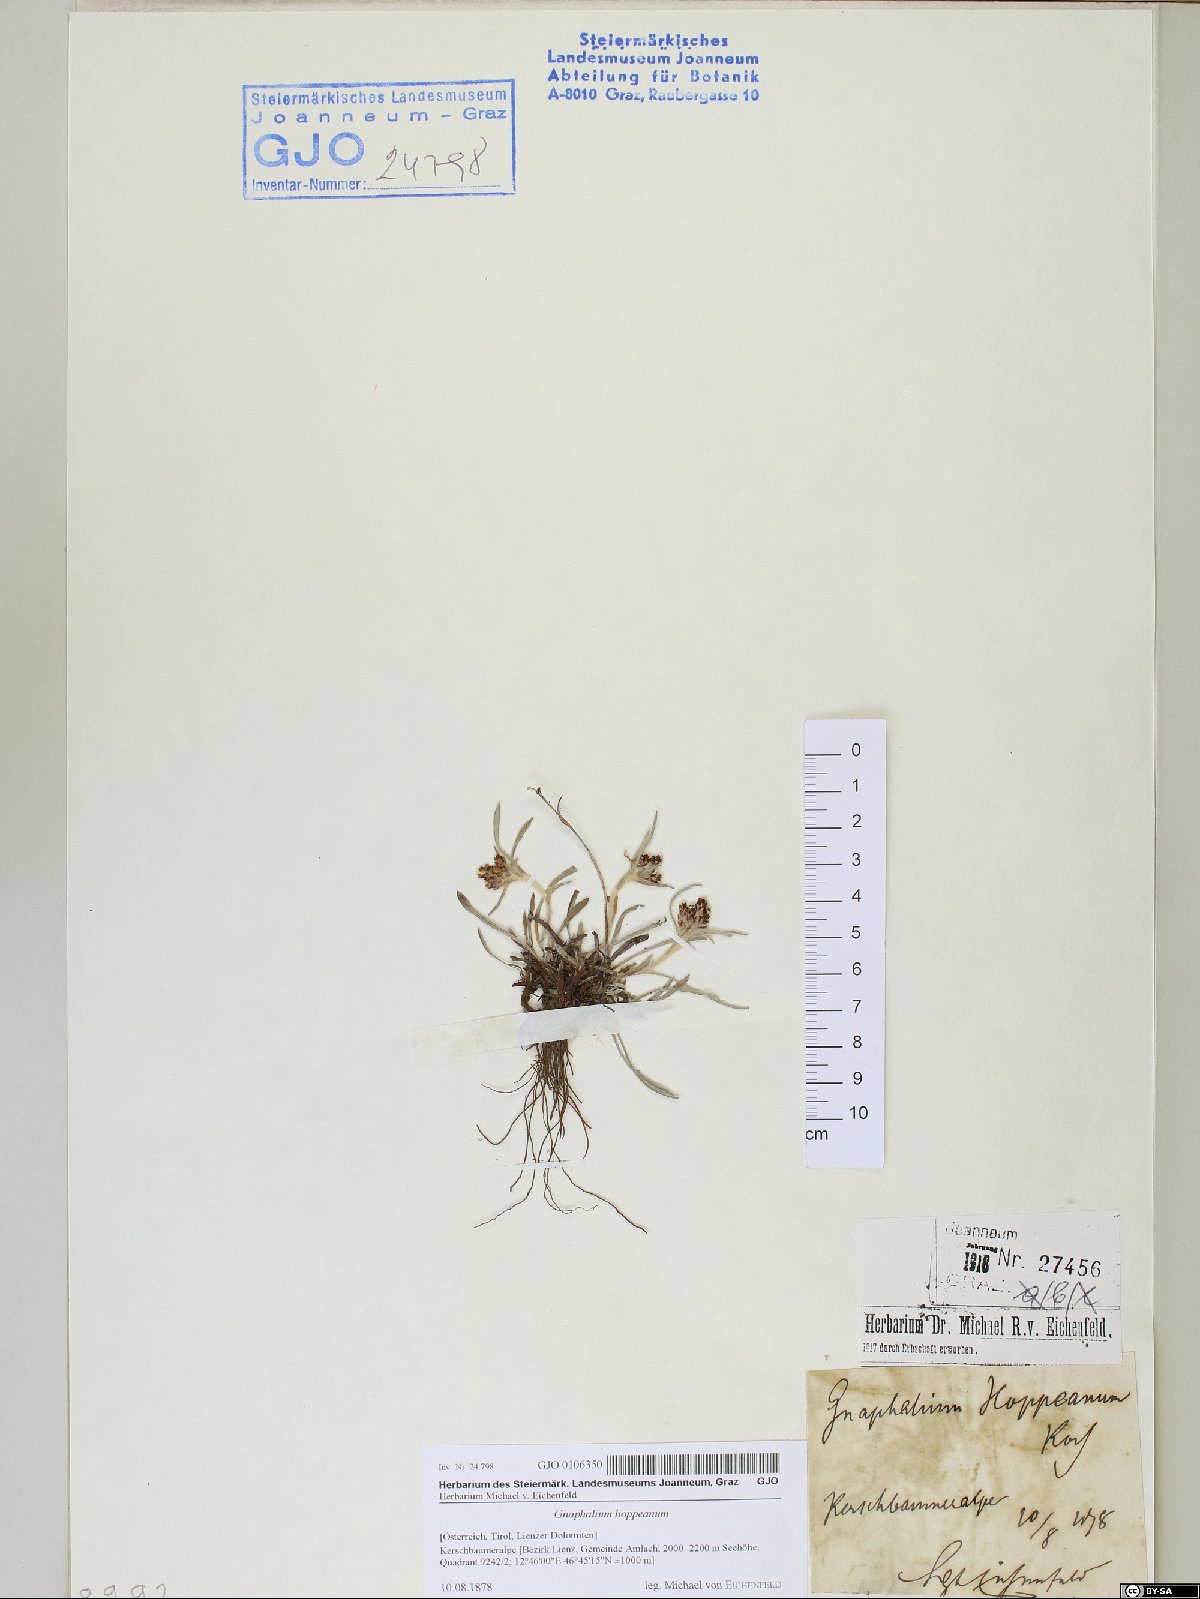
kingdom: Plantae
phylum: Tracheophyta
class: Magnoliopsida
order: Asterales
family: Asteraceae
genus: Omalotheca
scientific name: Omalotheca hoppeana
